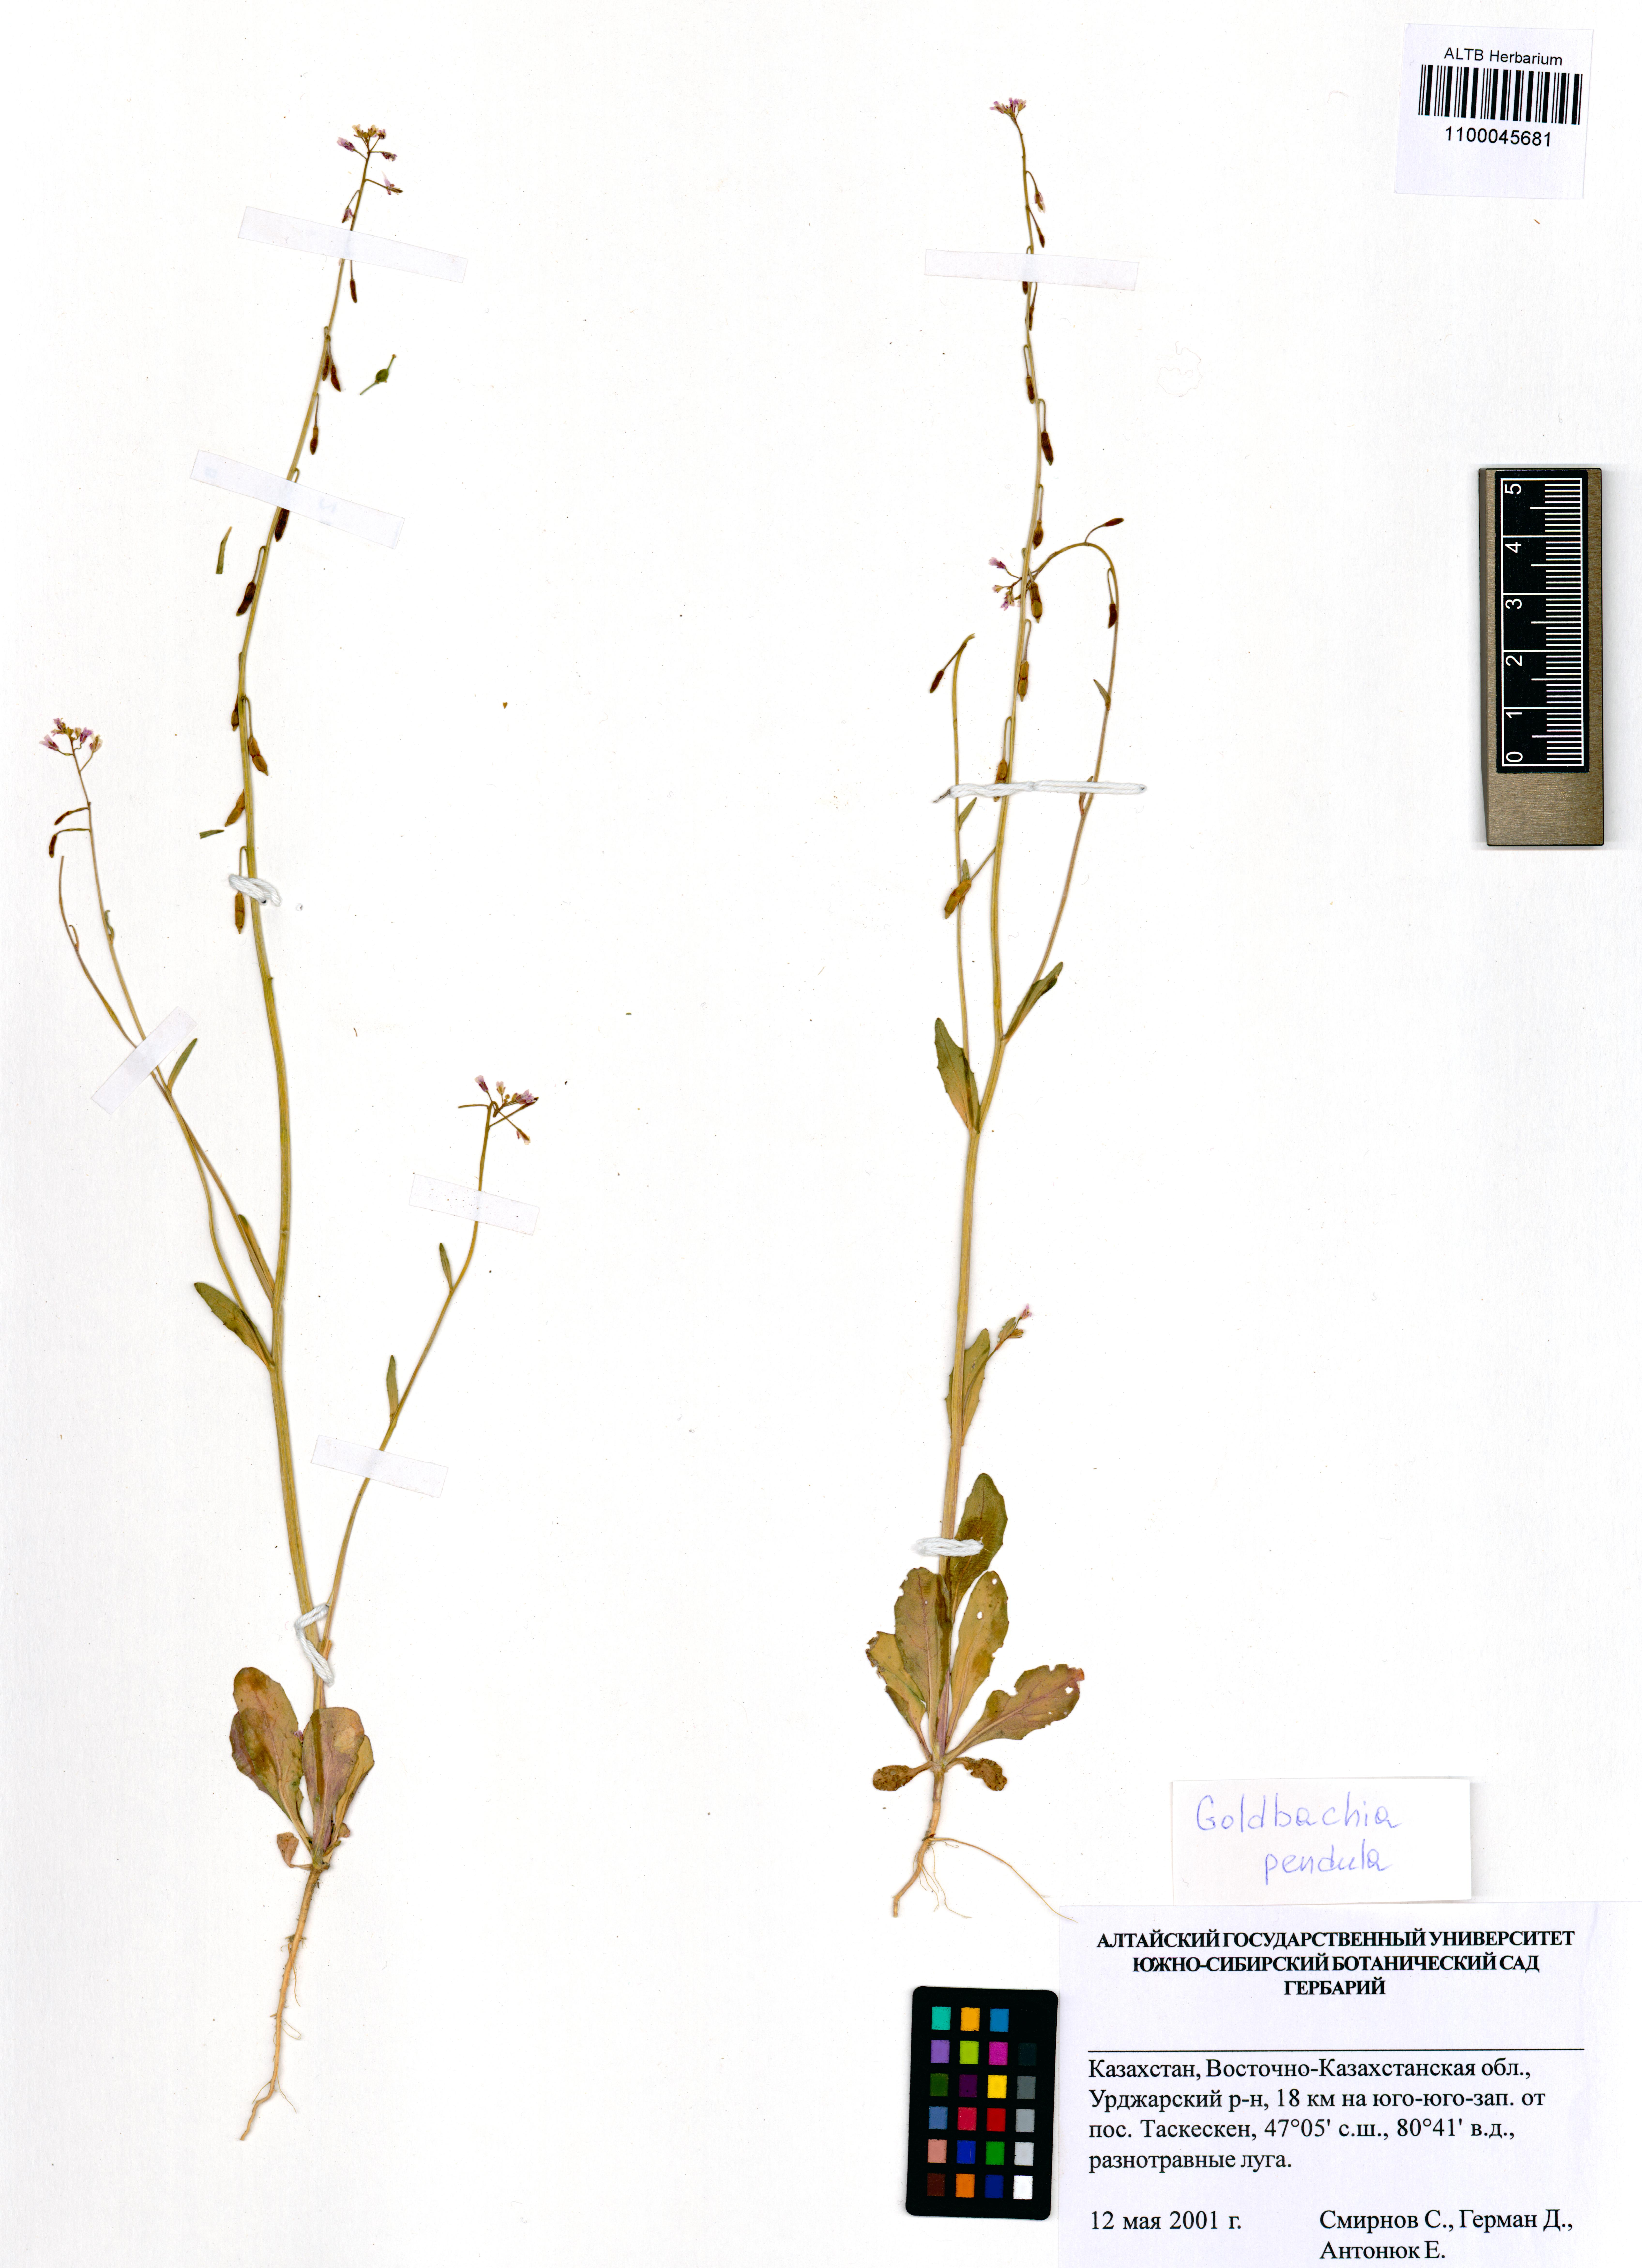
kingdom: Plantae
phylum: Tracheophyta
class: Magnoliopsida
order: Brassicales
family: Brassicaceae
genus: Goldbachia
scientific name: Goldbachia pendula
